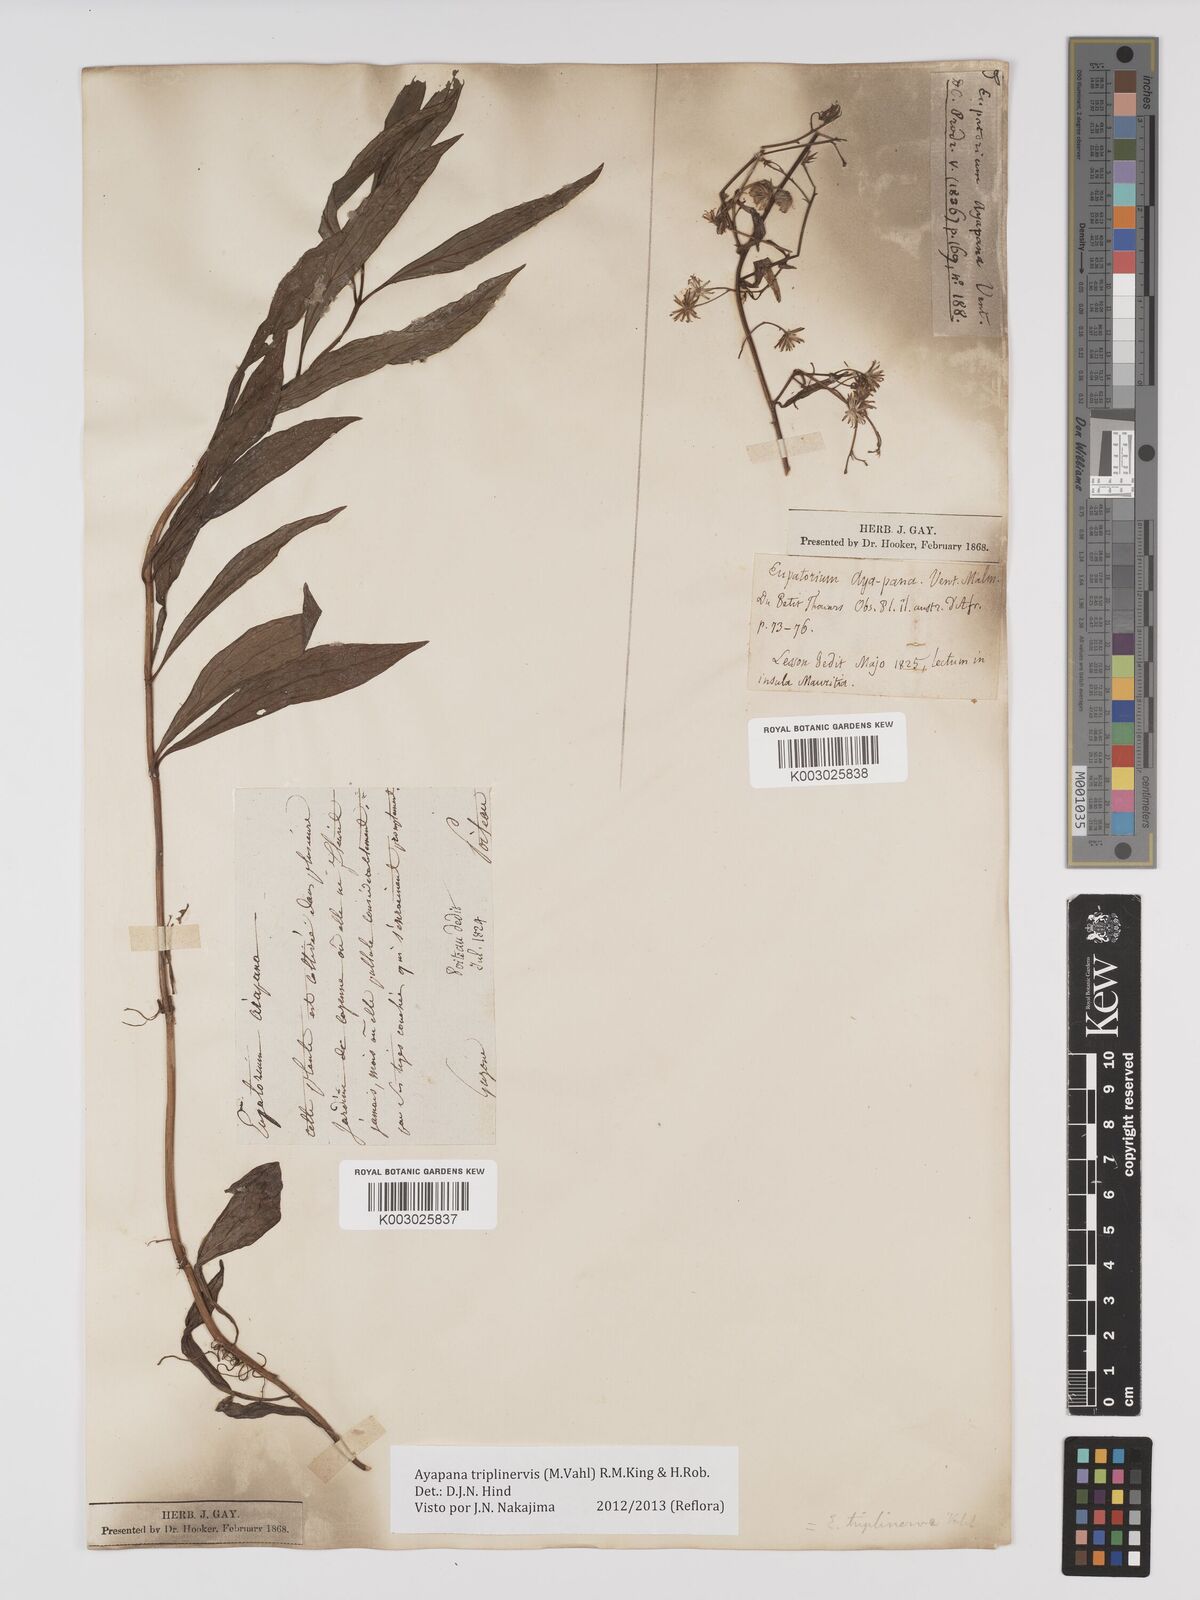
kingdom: Plantae
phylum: Tracheophyta
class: Magnoliopsida
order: Asterales
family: Asteraceae
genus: Ayapana
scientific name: Ayapana triplinervis
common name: Triplinerved eupatorium
